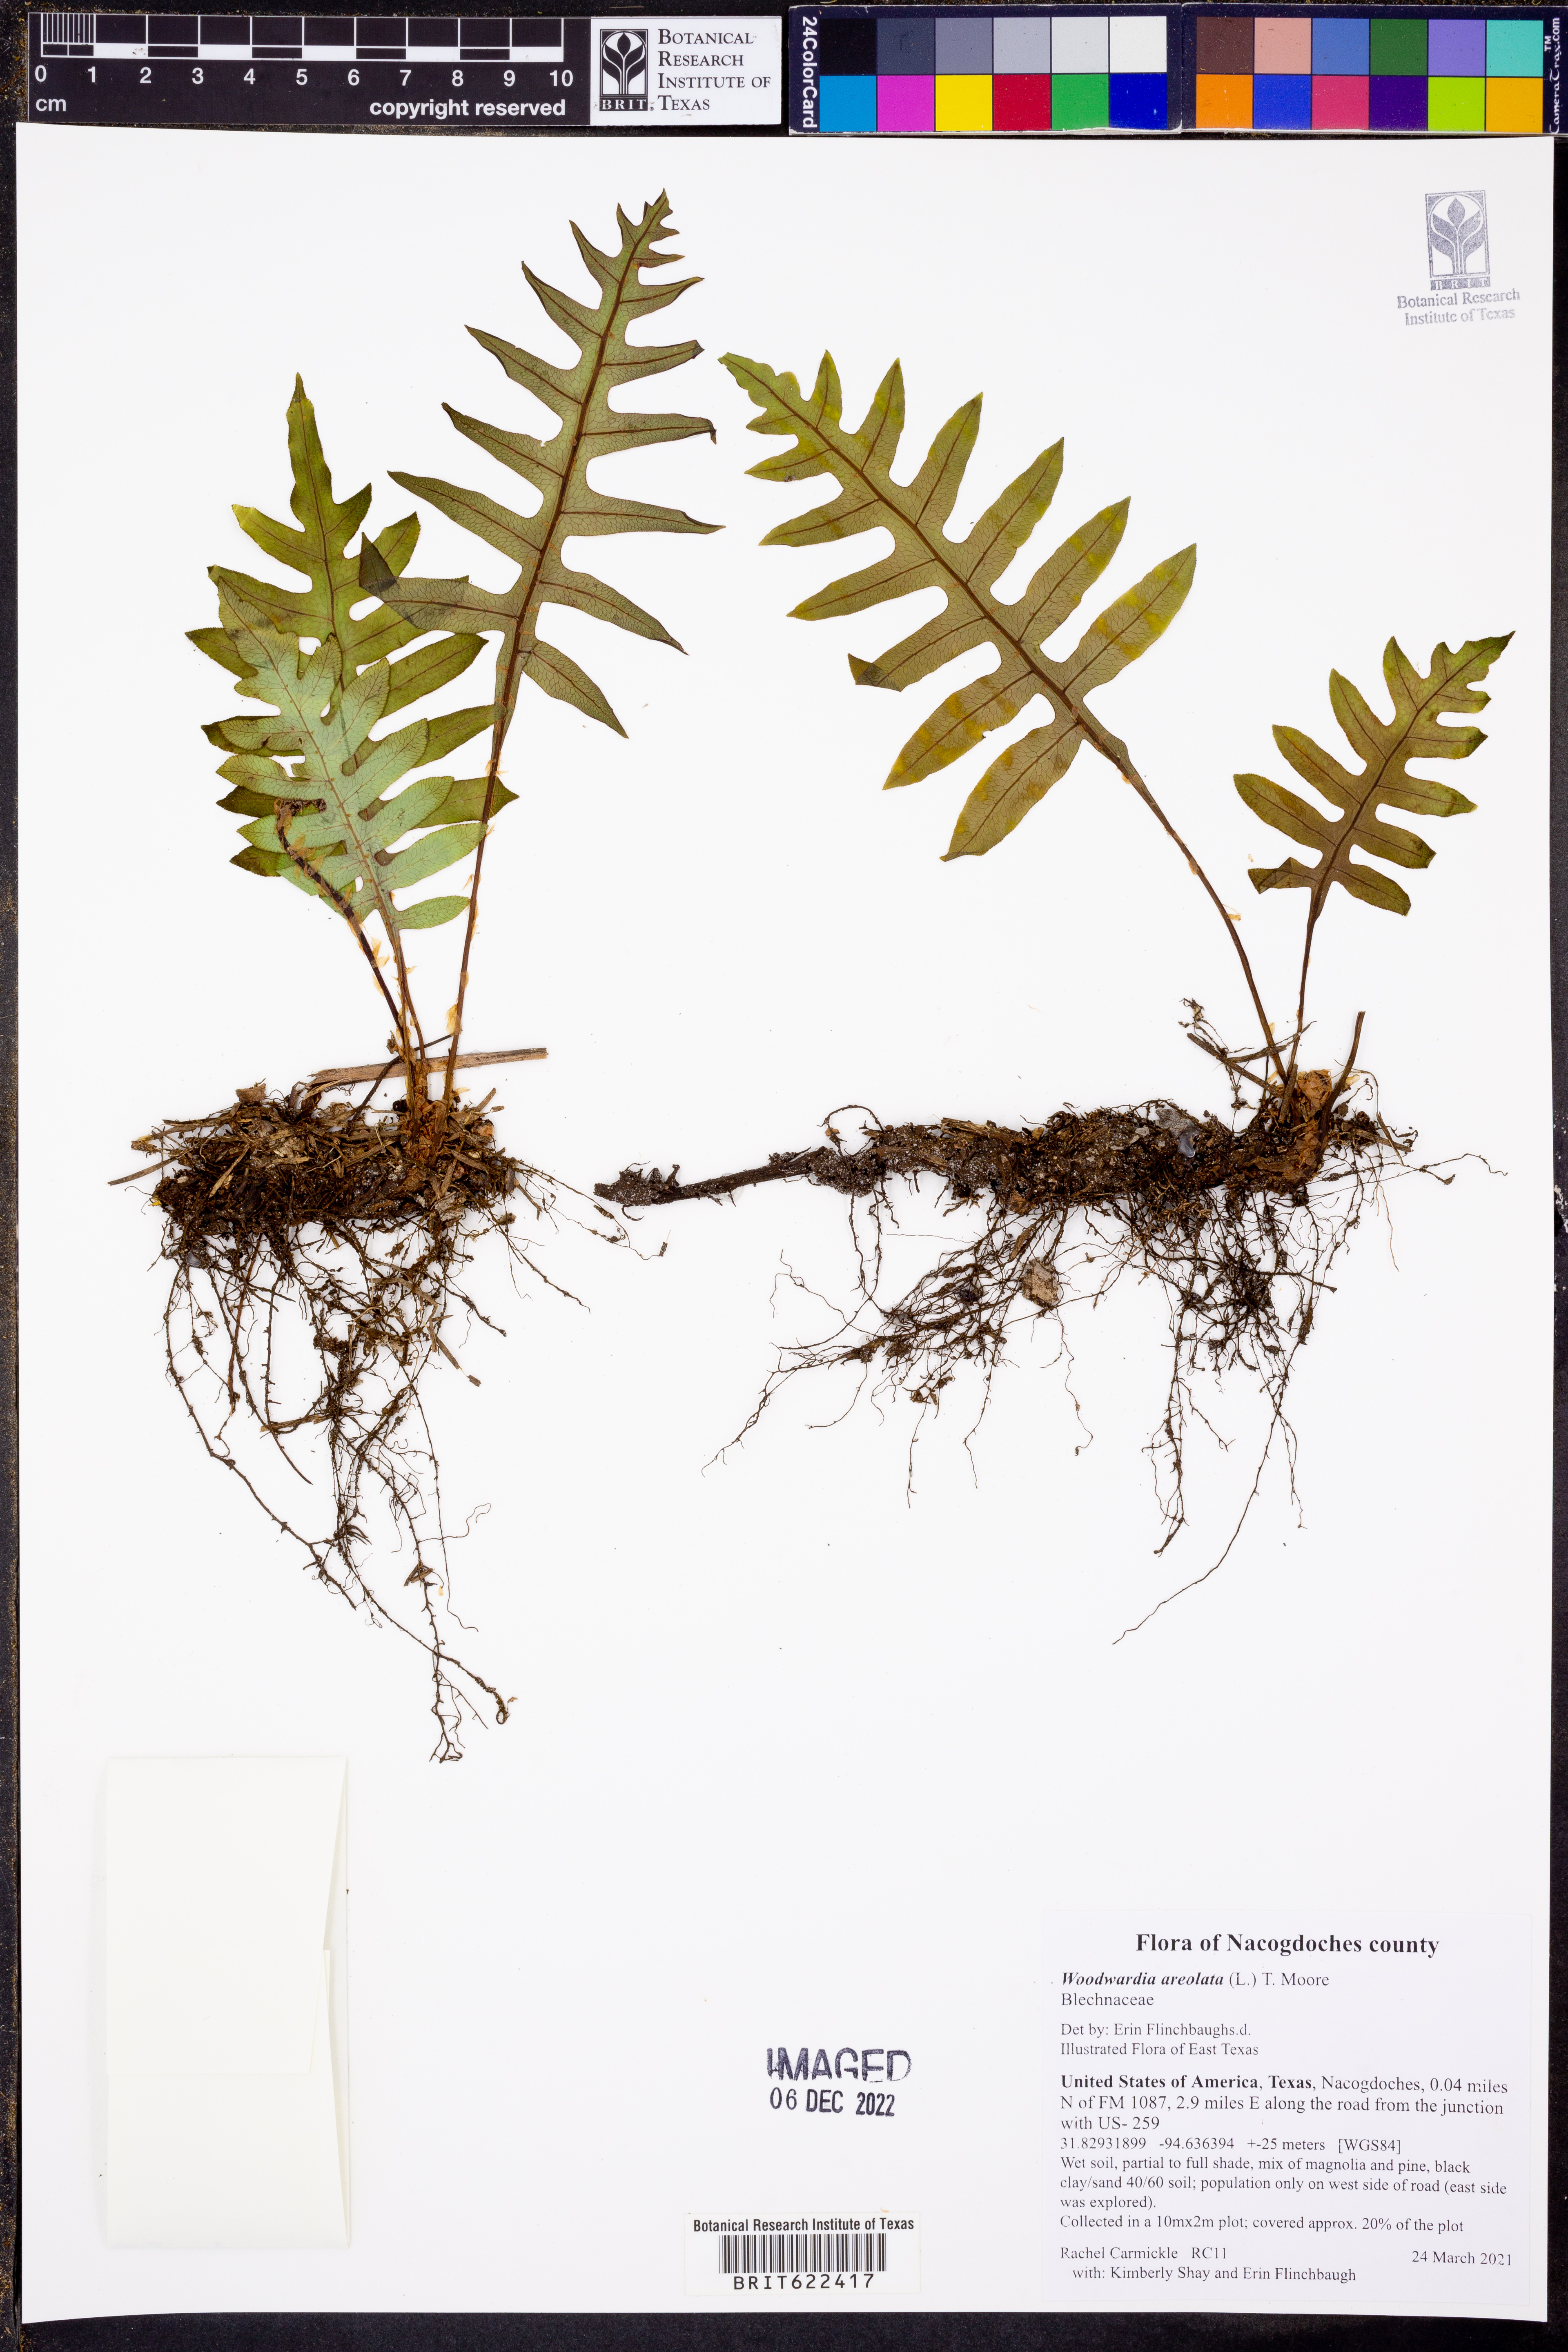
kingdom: Plantae
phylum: Tracheophyta
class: Polypodiopsida
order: Polypodiales
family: Blechnaceae
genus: Lorinseria
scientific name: Lorinseria areolata
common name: Dwarf chain fern
